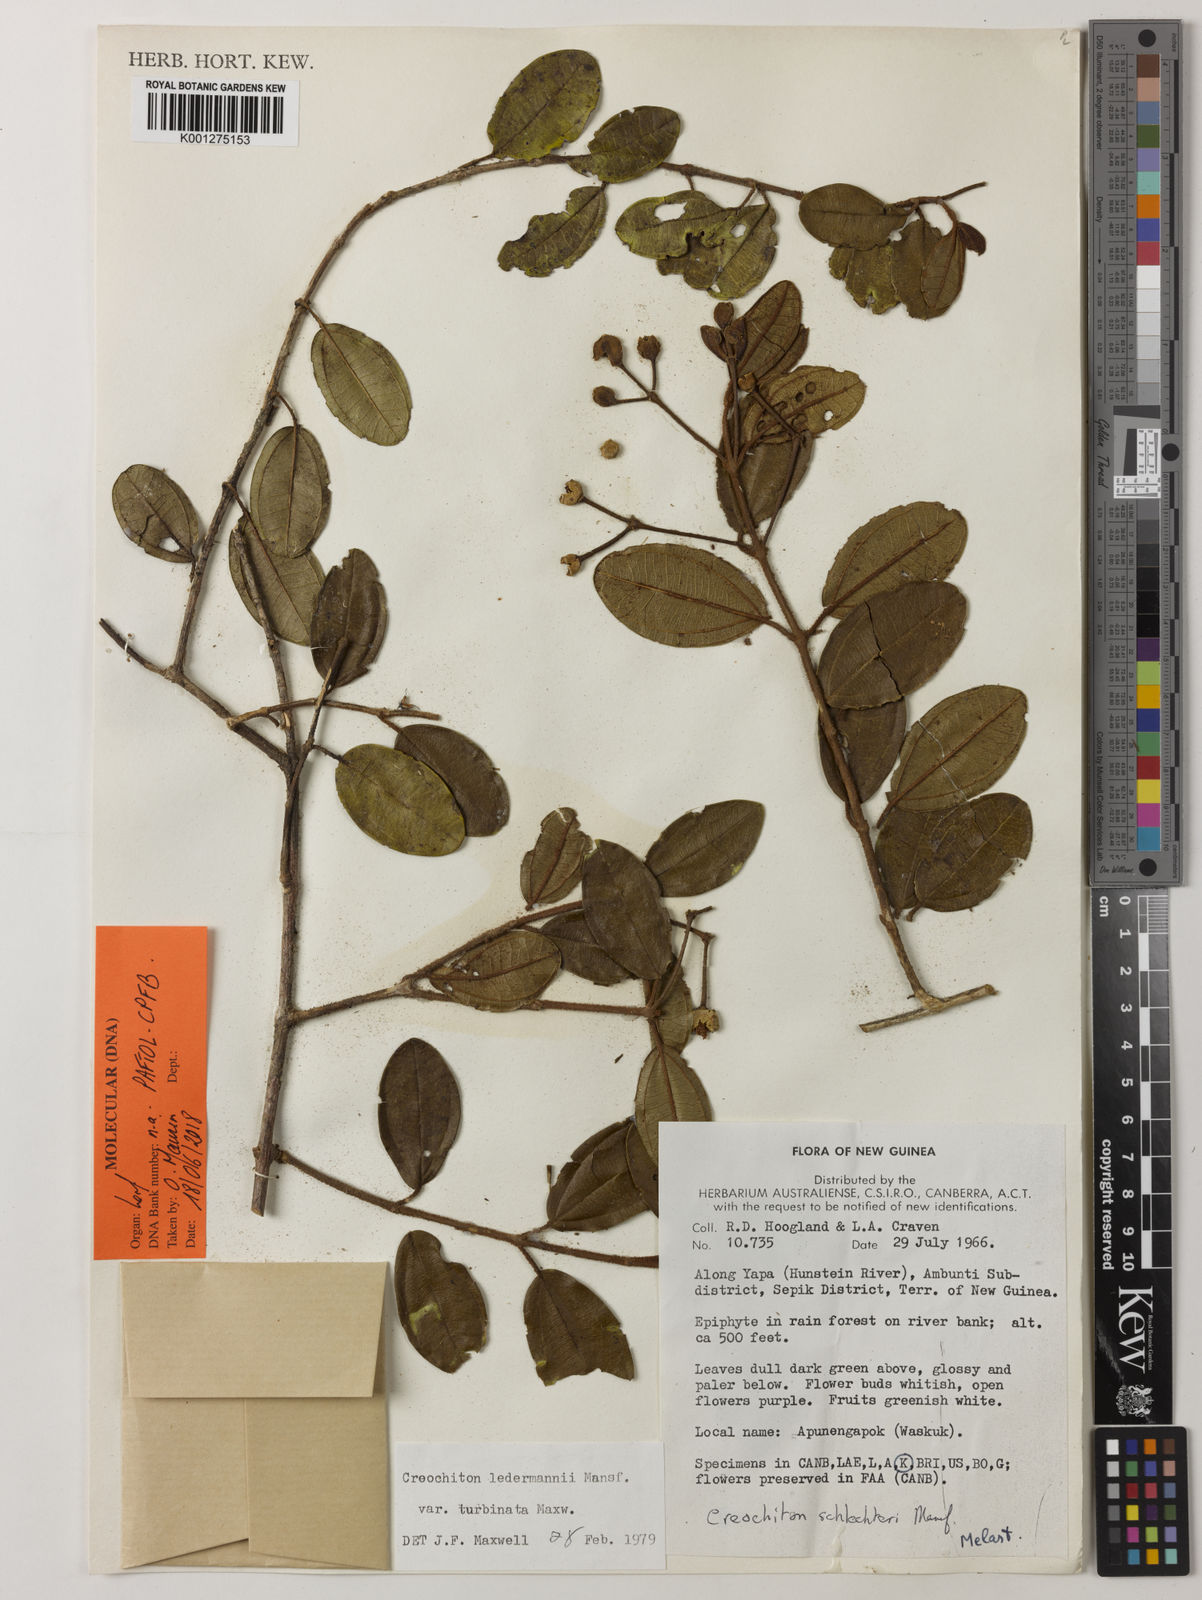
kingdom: Plantae
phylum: Tracheophyta
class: Magnoliopsida
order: Myrtales
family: Melastomataceae
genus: Creochiton
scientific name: Creochiton turbinatus
